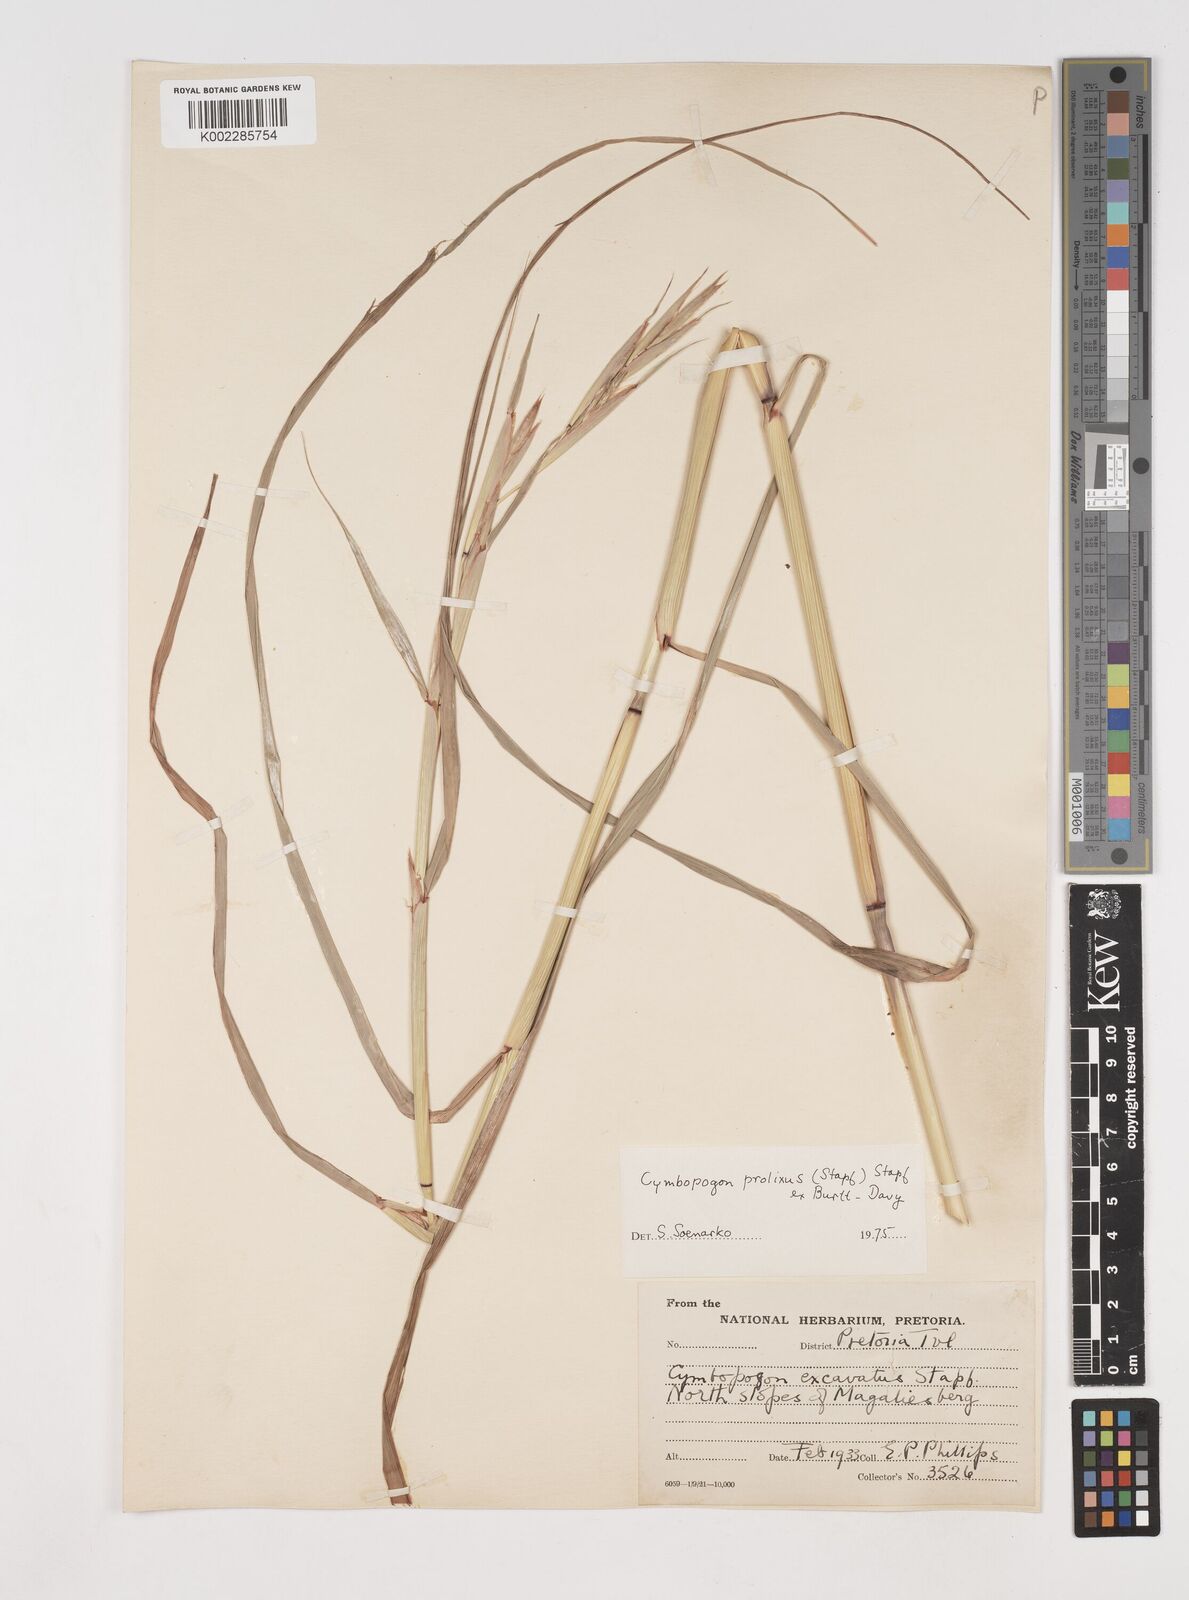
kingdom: Plantae
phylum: Tracheophyta
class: Liliopsida
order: Poales
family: Poaceae
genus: Cymbopogon
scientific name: Cymbopogon nardus
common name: Giant turpentine grass
